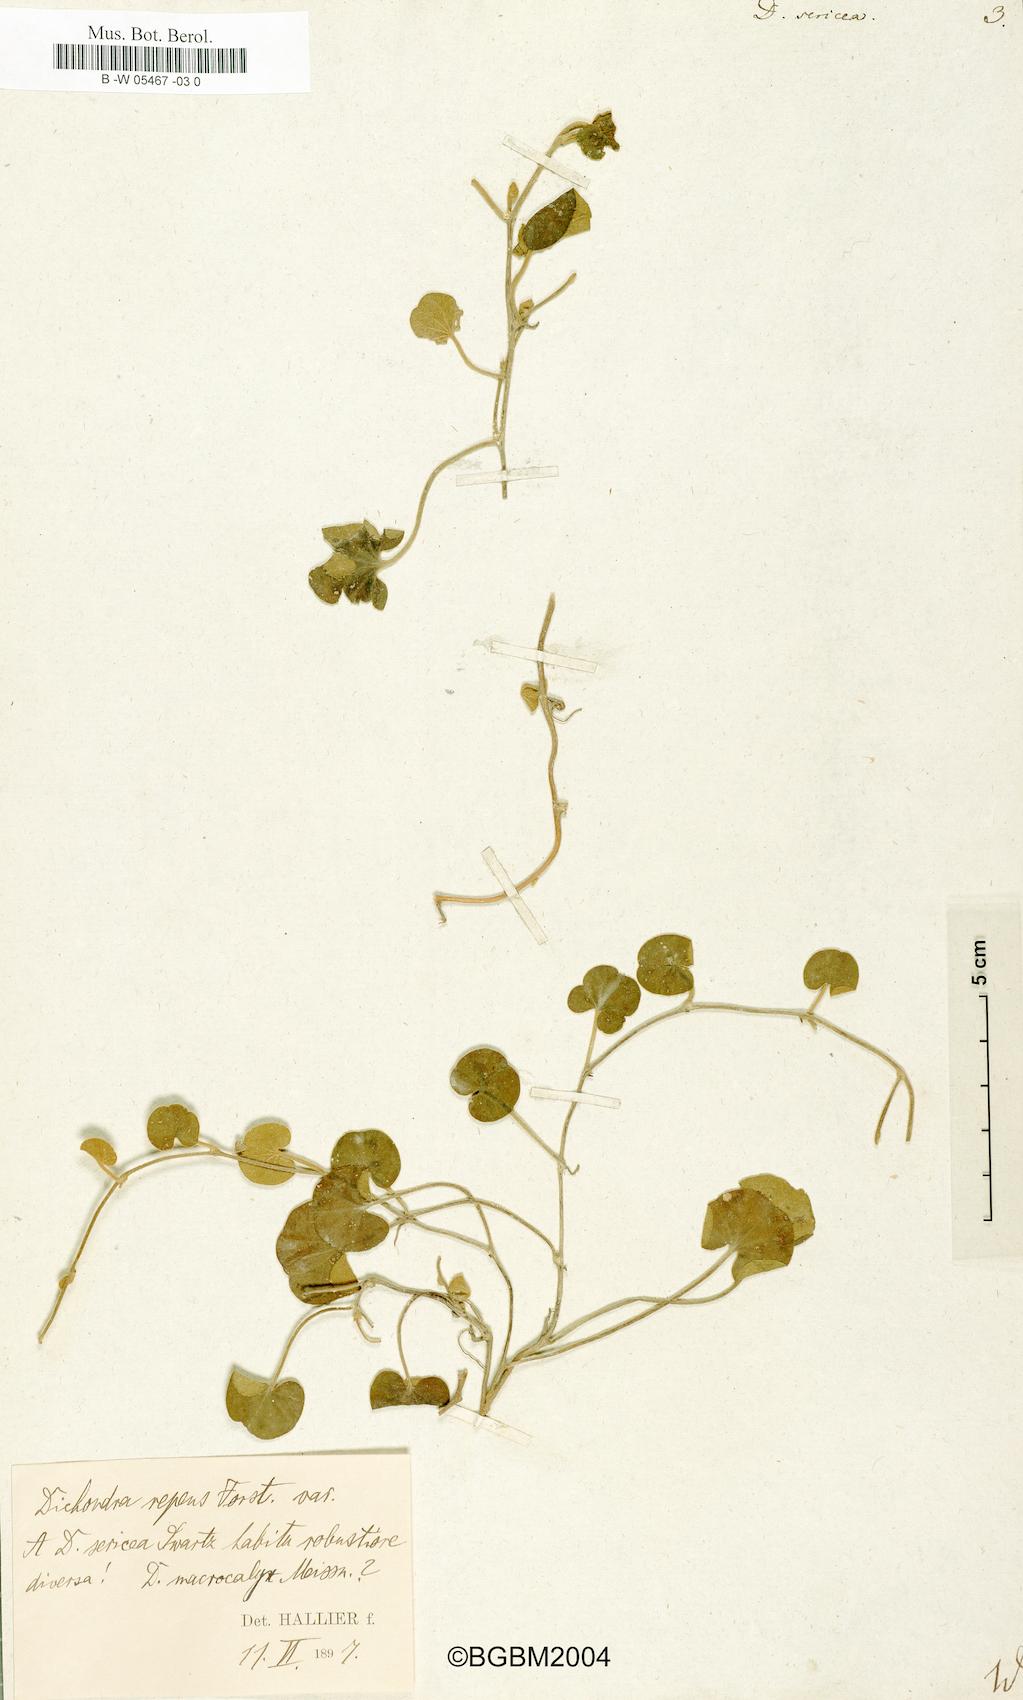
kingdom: Plantae
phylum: Tracheophyta
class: Magnoliopsida
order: Solanales
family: Convolvulaceae
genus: Dichondra
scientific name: Dichondra sericea
